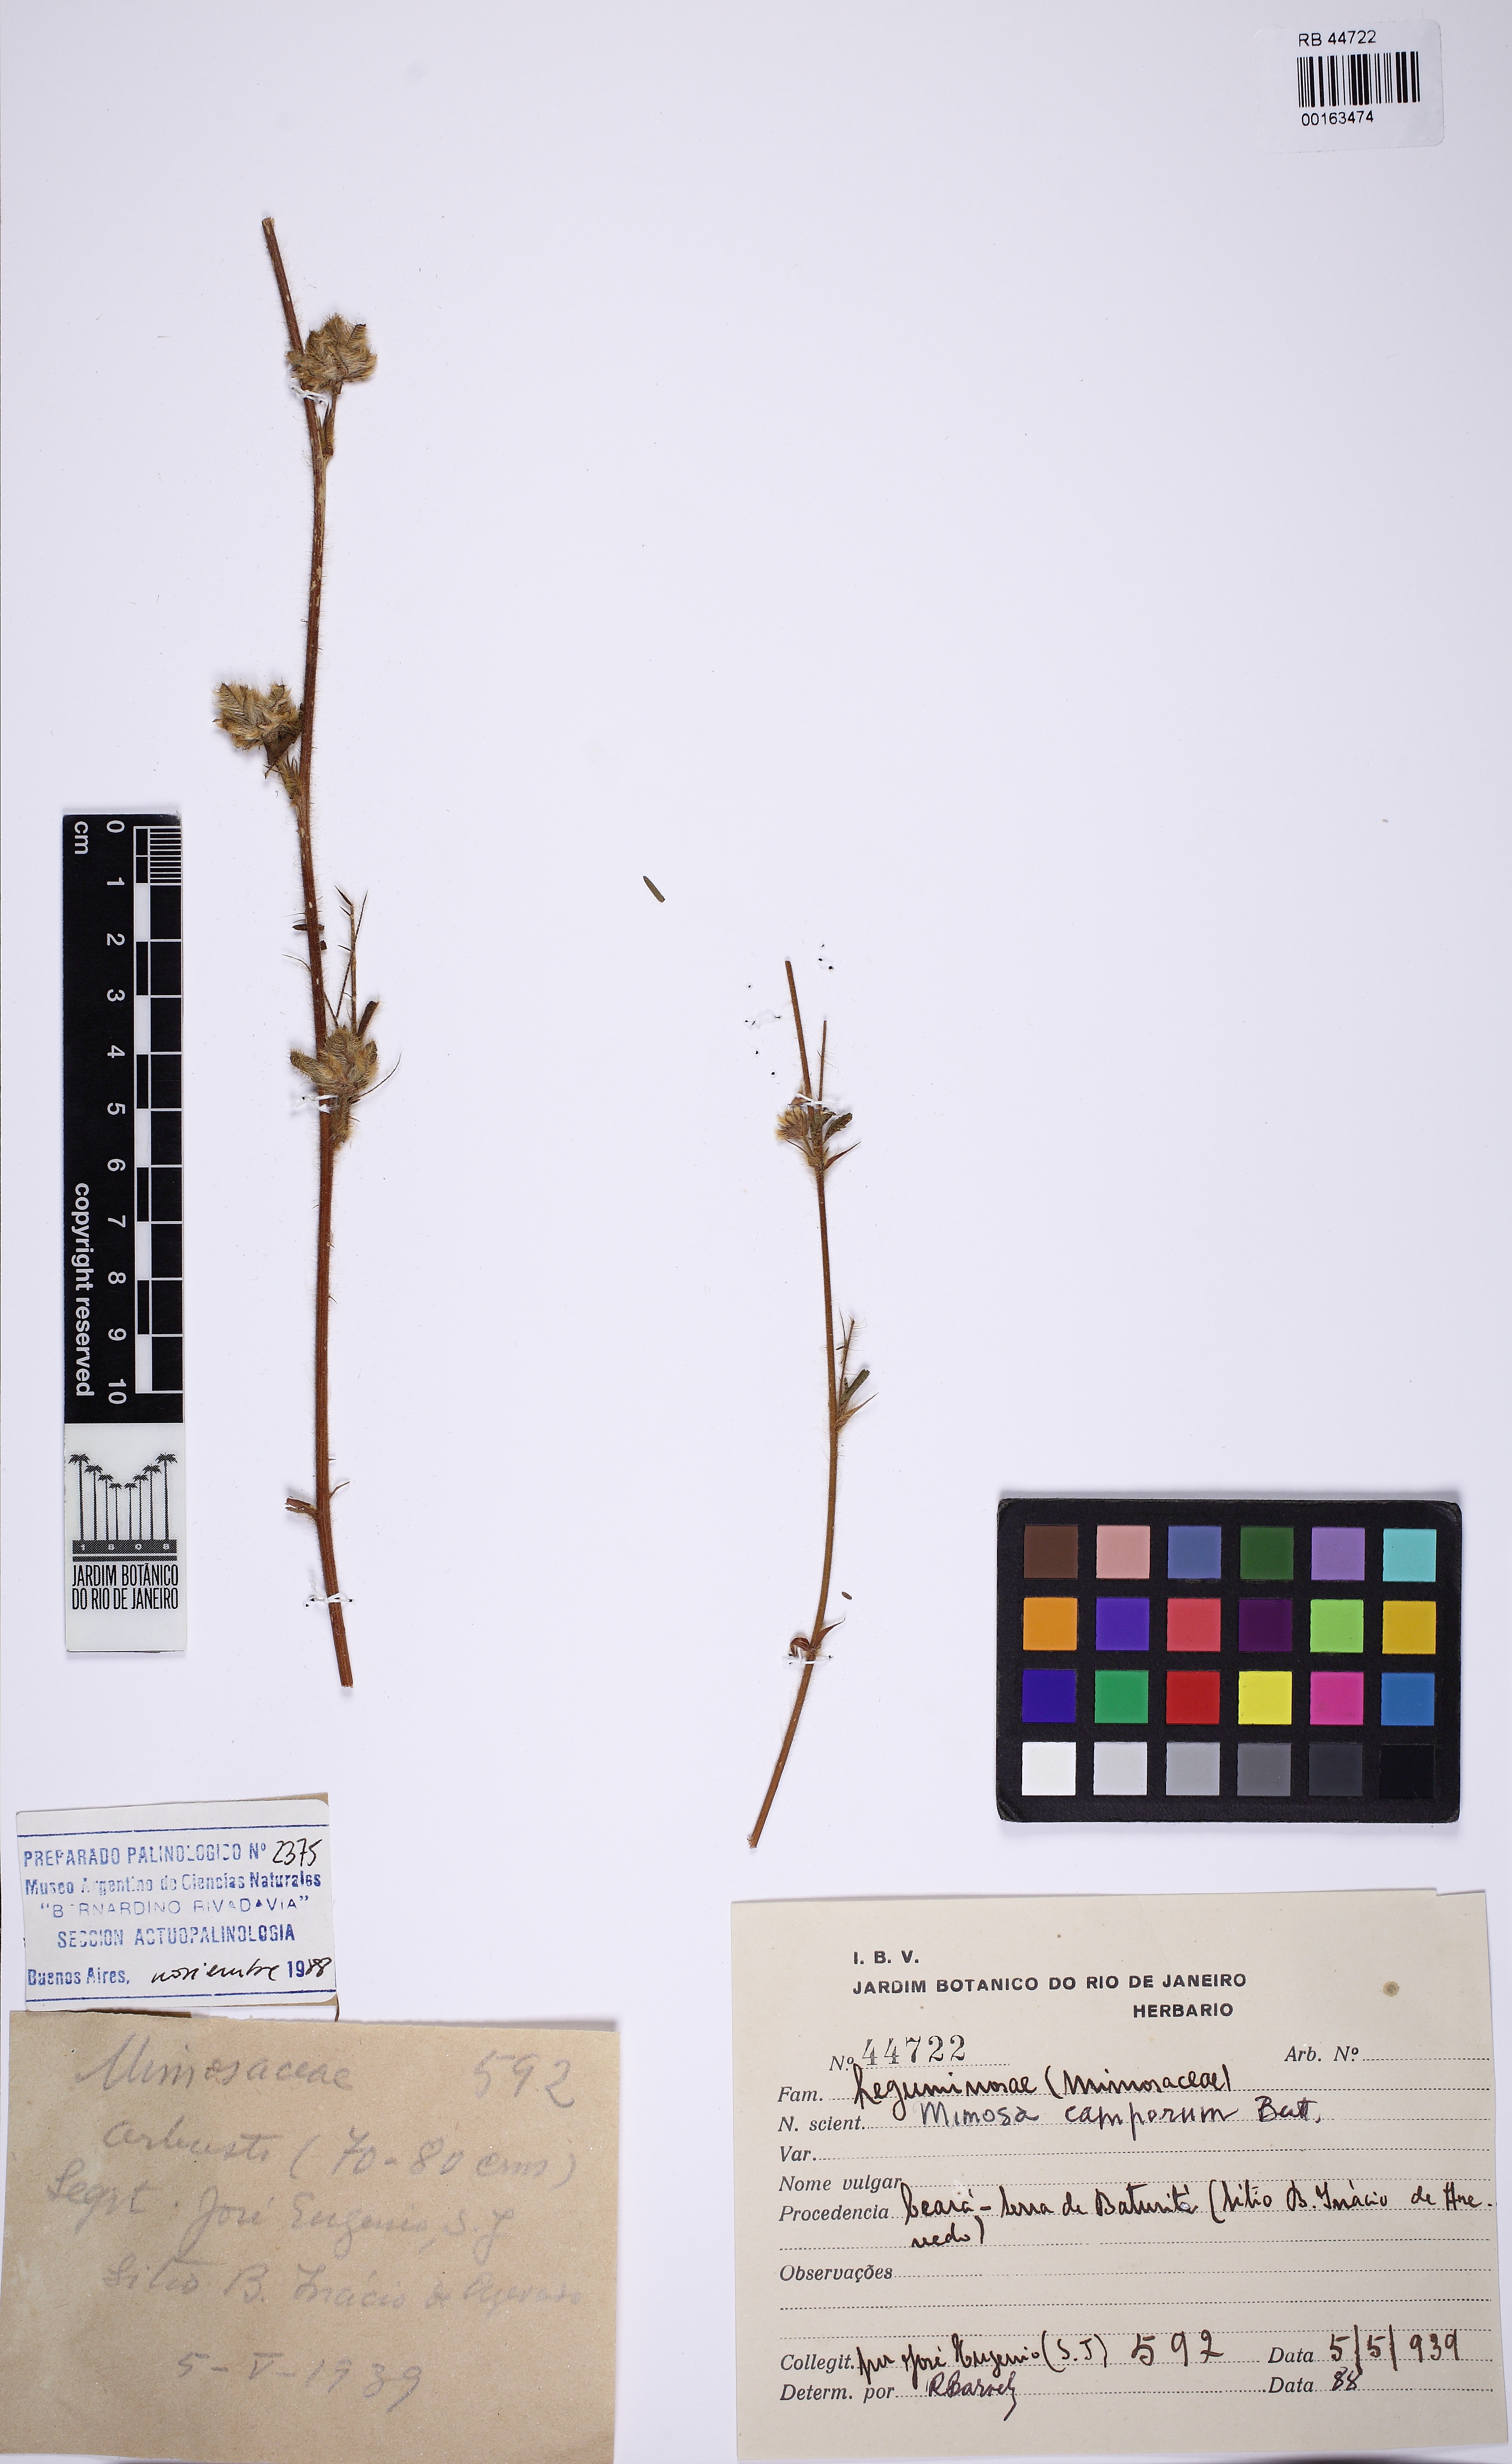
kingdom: Plantae
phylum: Tracheophyta
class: Magnoliopsida
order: Fabales
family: Fabaceae
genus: Mimosa
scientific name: Mimosa camporum
